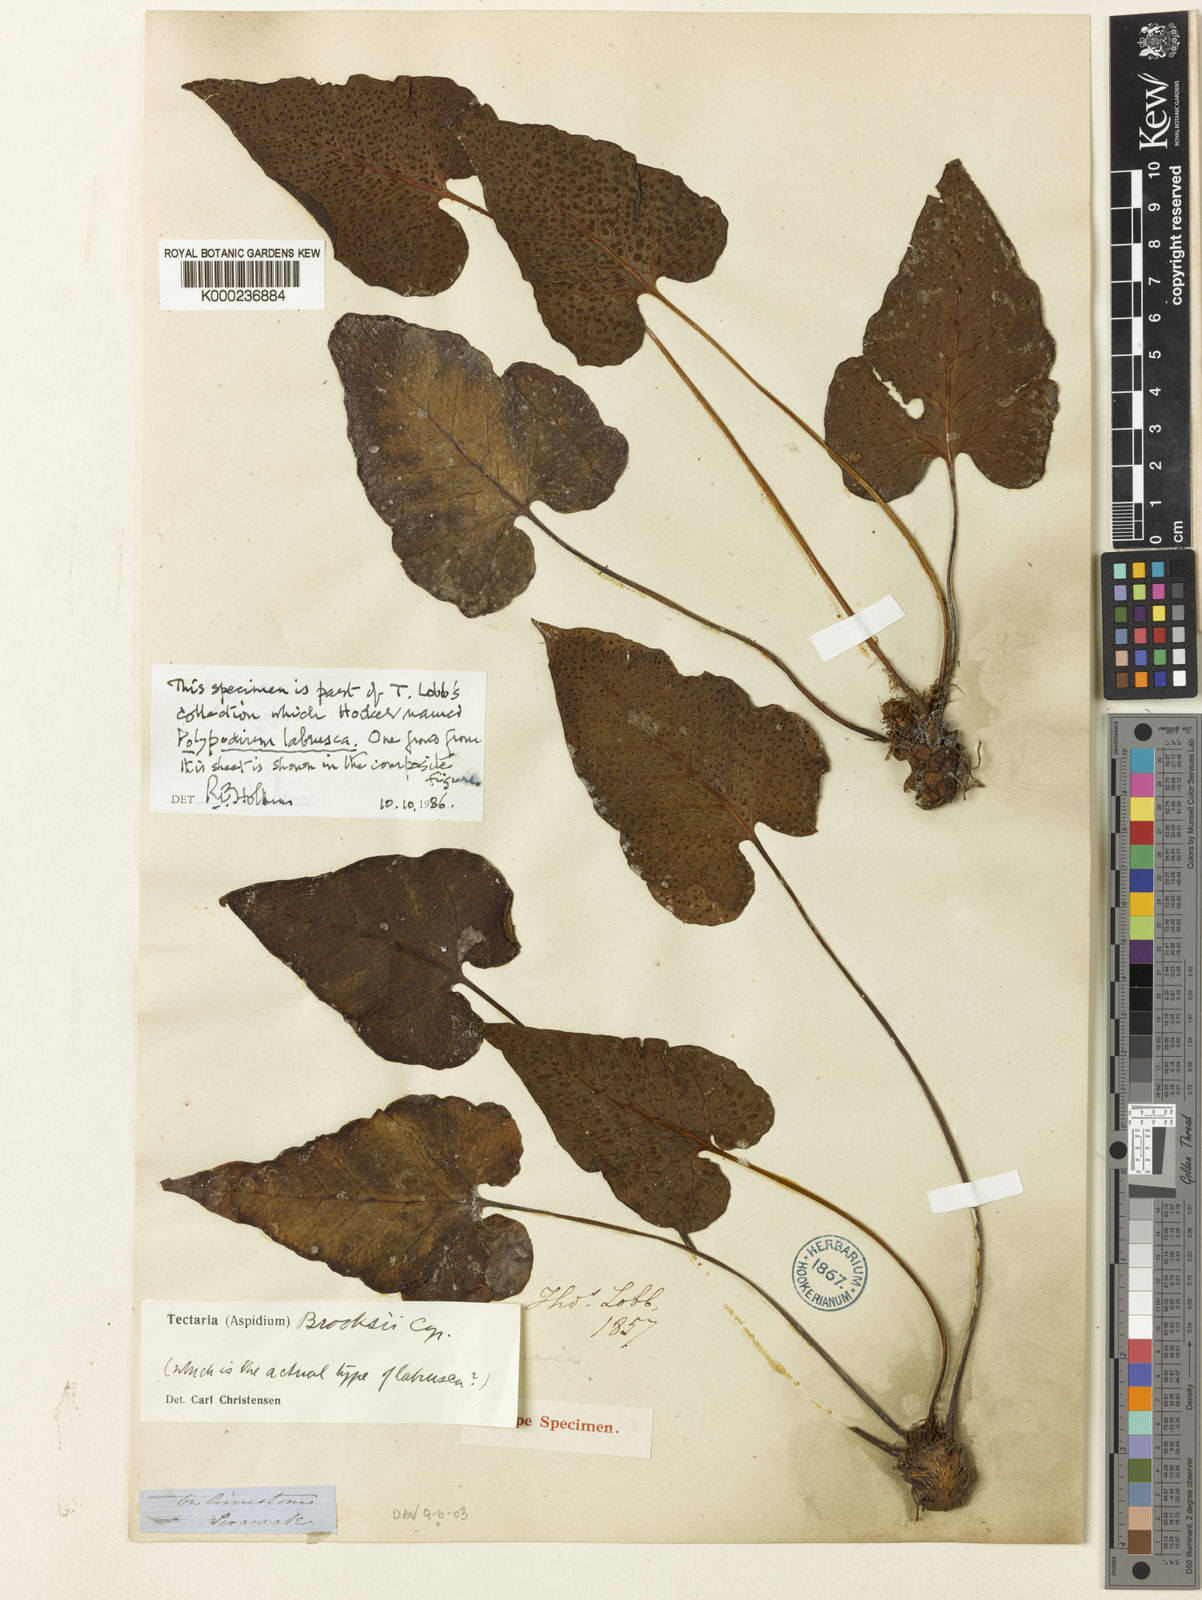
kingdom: Plantae
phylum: Tracheophyta
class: Polypodiopsida
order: Polypodiales
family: Tectariaceae
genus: Tectaria
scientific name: Tectaria brooksii
